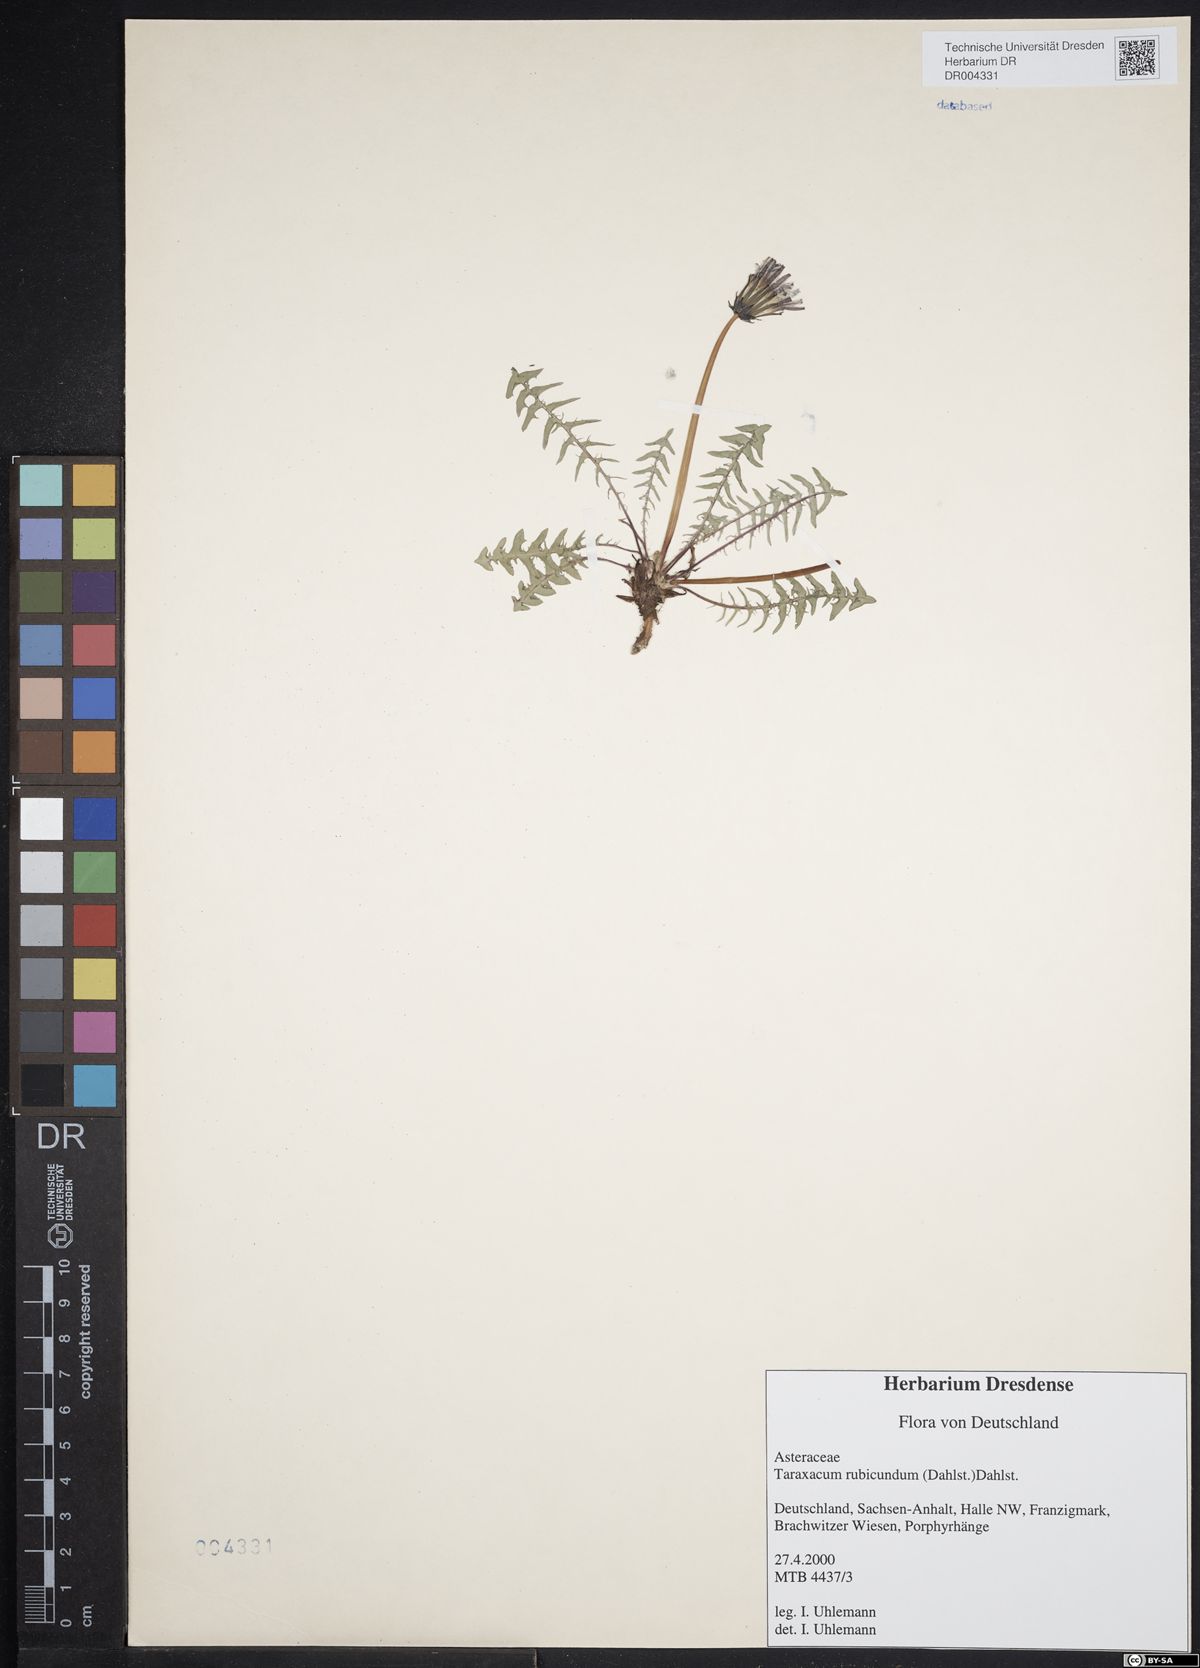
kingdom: Plantae
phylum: Tracheophyta
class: Magnoliopsida
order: Asterales
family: Asteraceae
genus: Taraxacum
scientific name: Taraxacum rubicundum
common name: Ruddy dandelion
